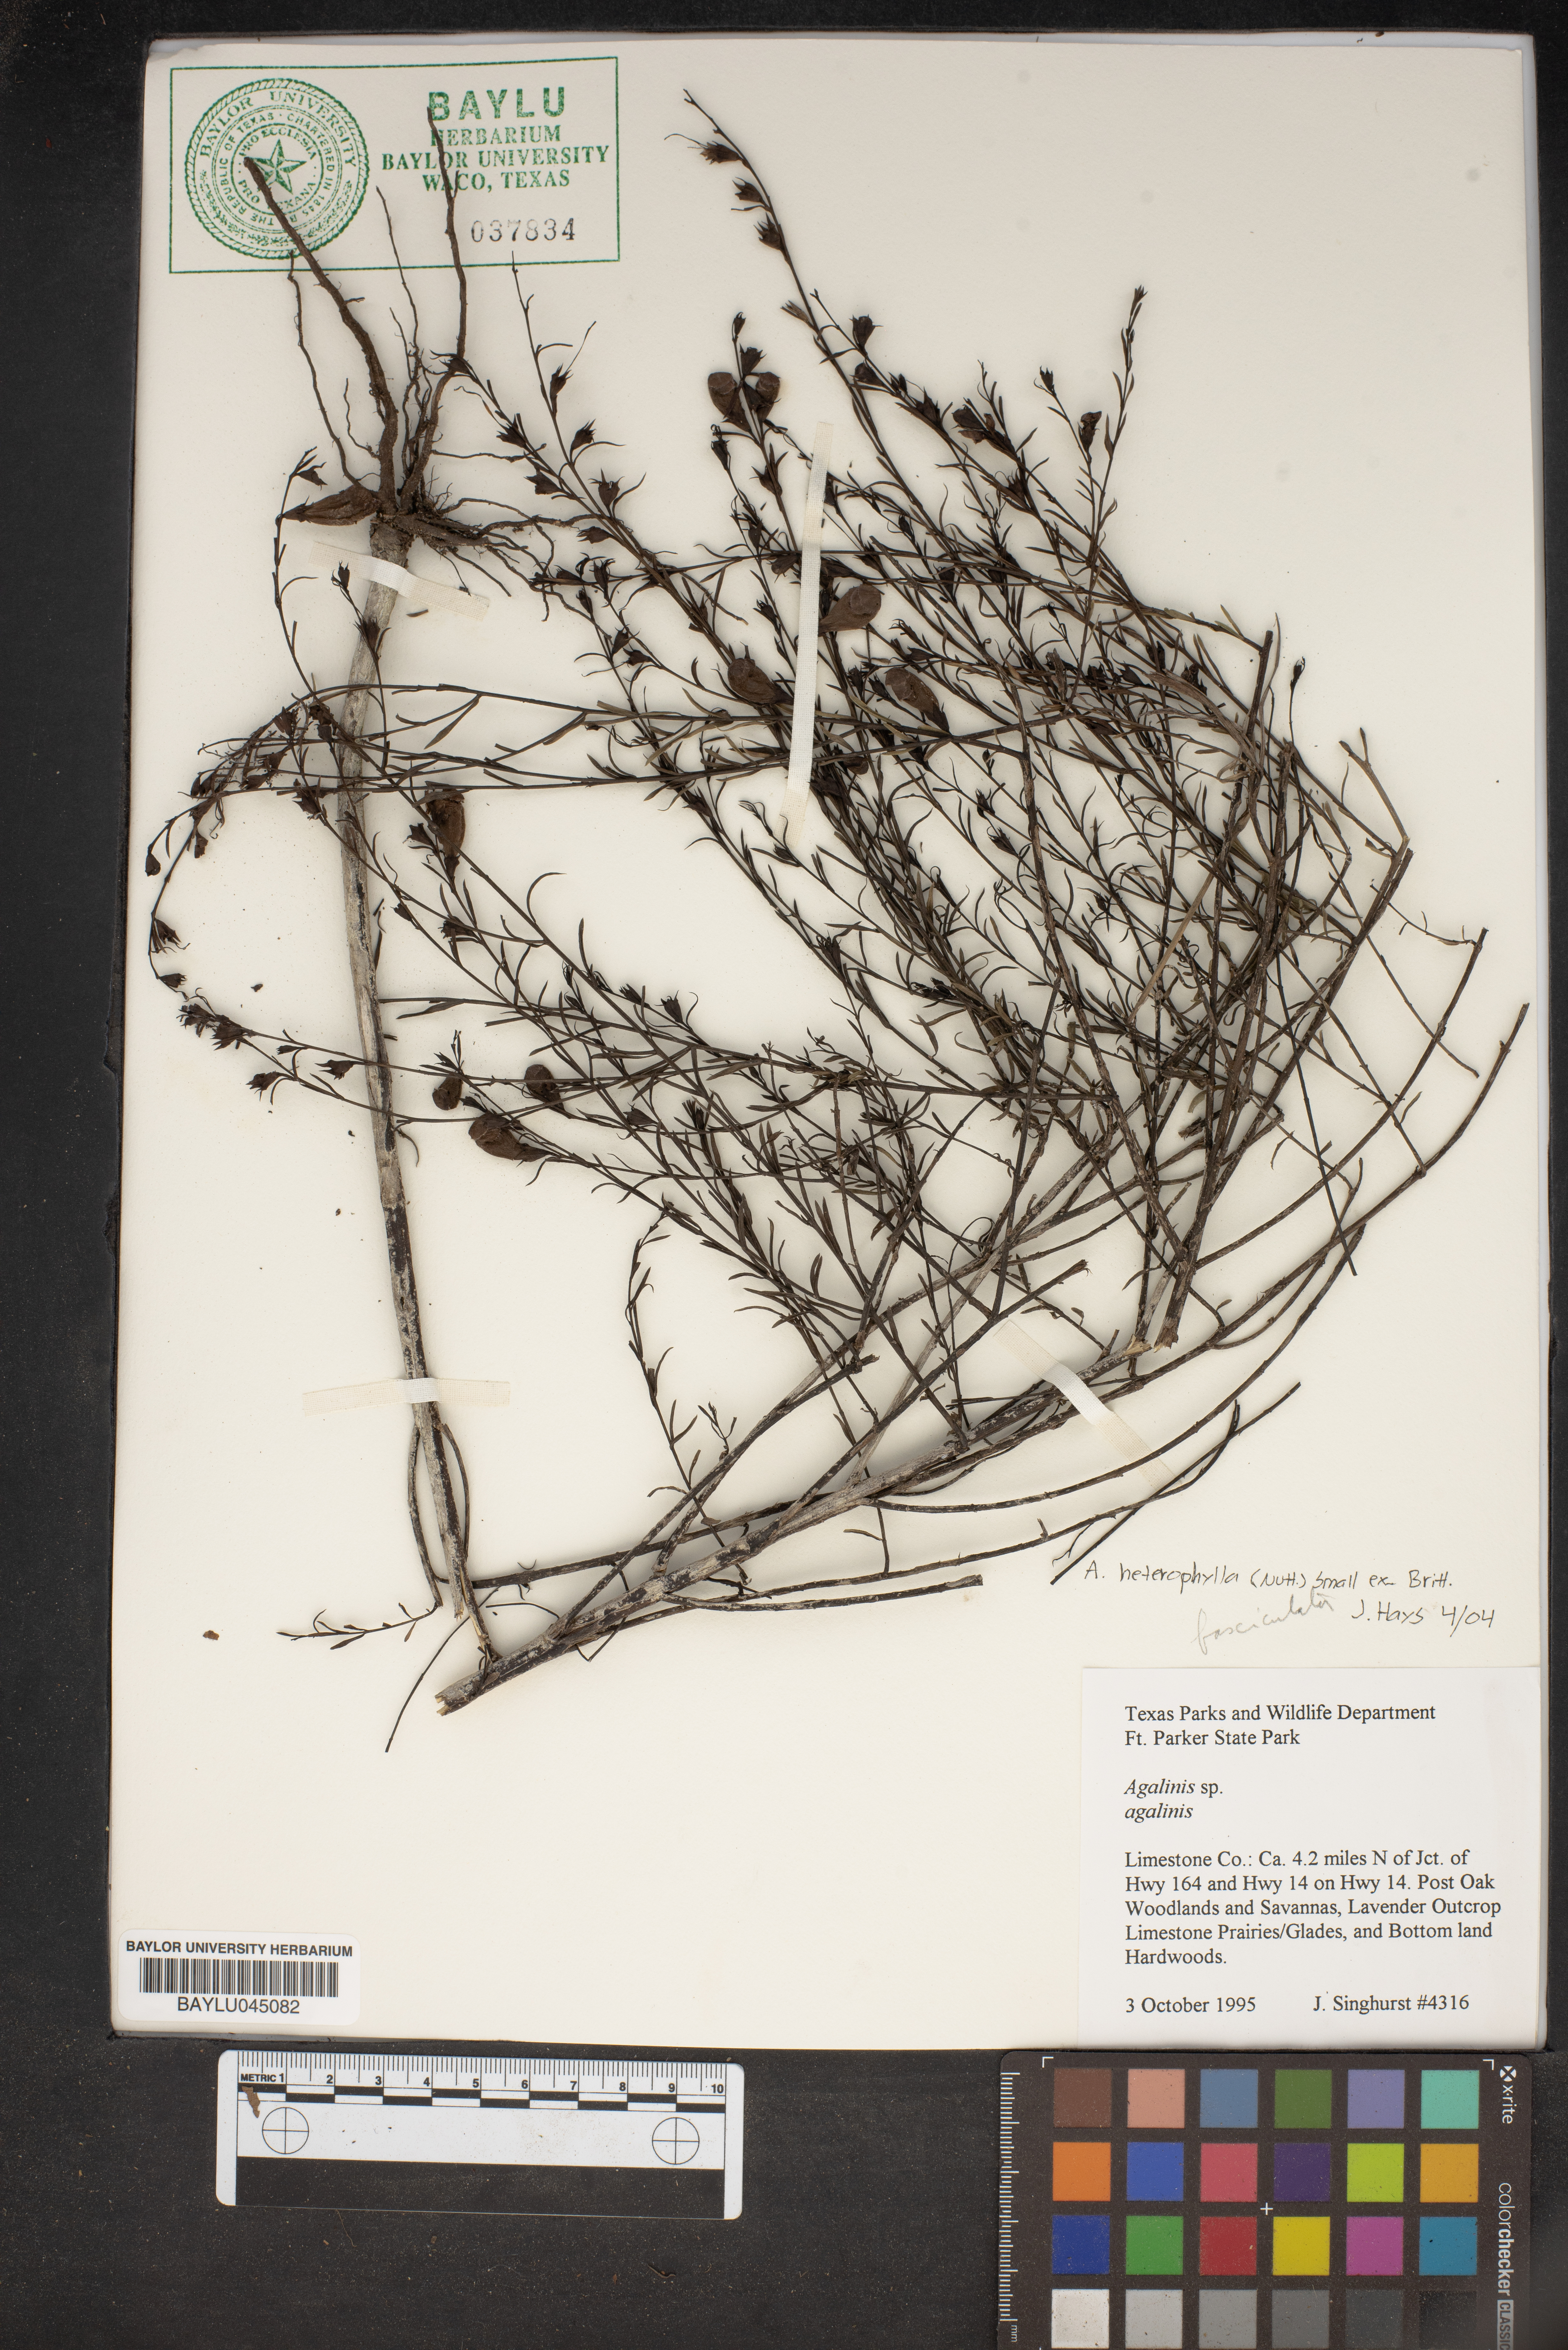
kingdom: Plantae
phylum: Tracheophyta
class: Magnoliopsida
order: Lamiales
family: Orobanchaceae
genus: Agalinis
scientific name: Agalinis
